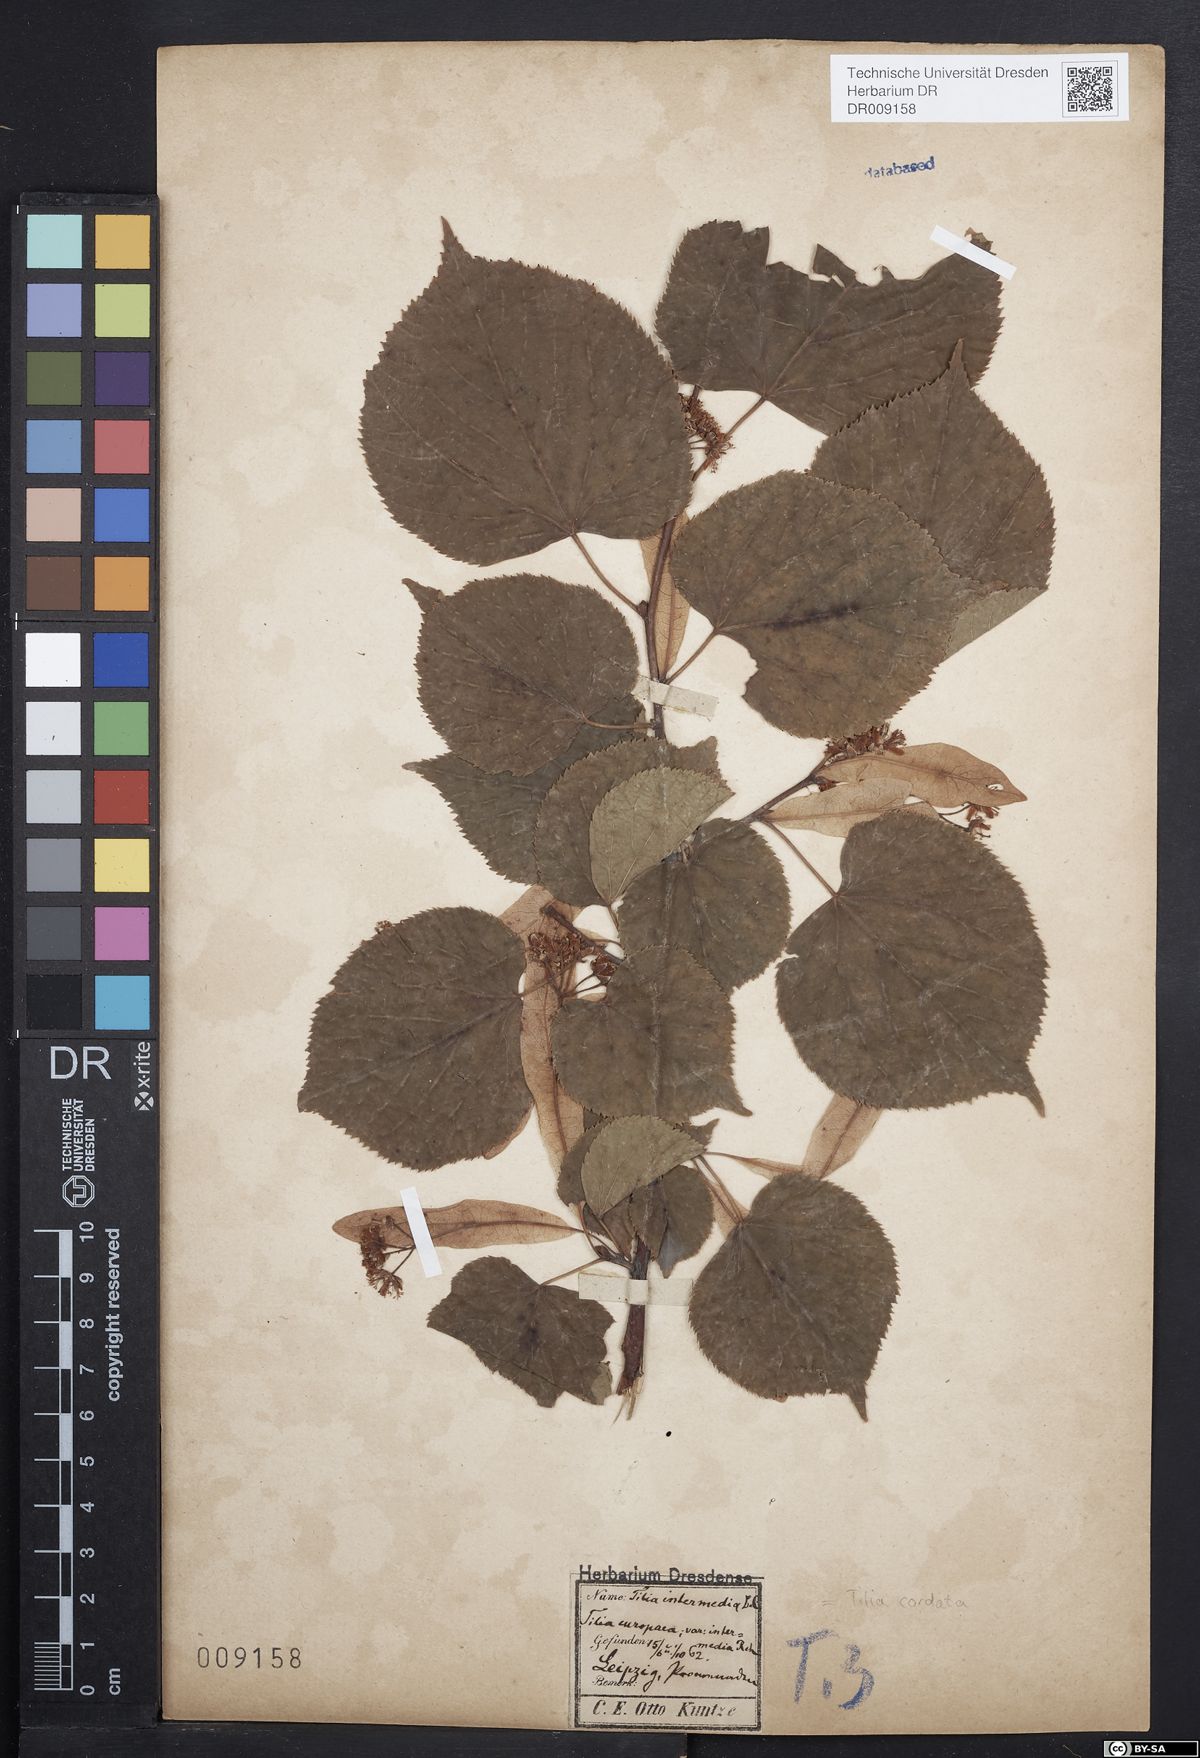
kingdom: Plantae
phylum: Tracheophyta
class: Magnoliopsida
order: Malvales
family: Malvaceae
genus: Tilia
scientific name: Tilia cordata
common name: Small-leaved lime
